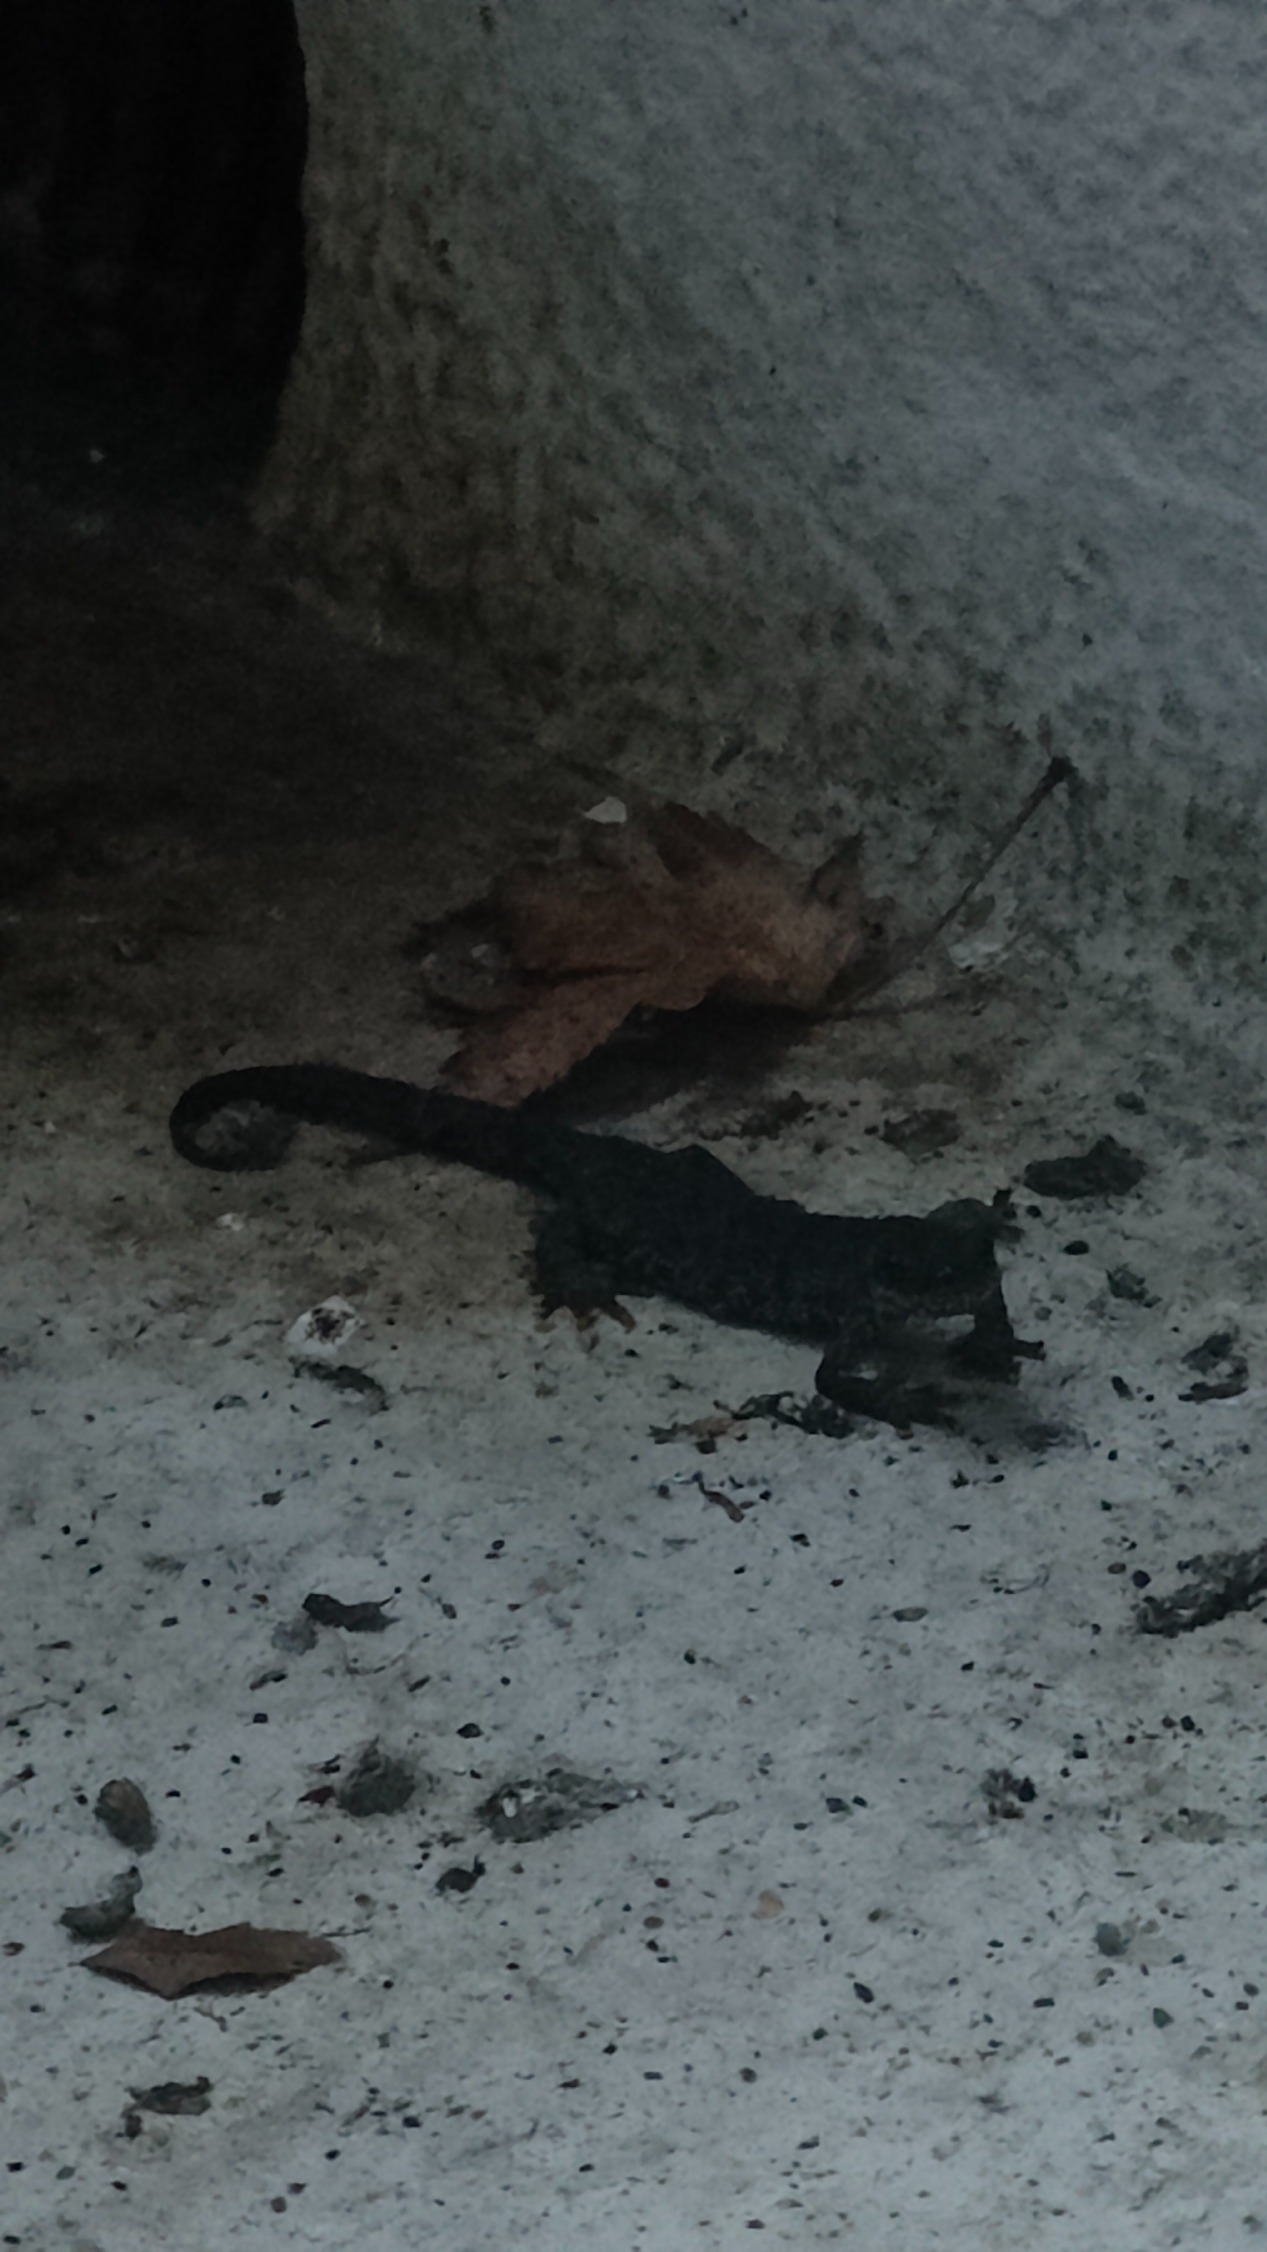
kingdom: Animalia
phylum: Chordata
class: Amphibia
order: Caudata
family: Salamandridae
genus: Triturus
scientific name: Triturus cristatus
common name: Stor vandsalamander
